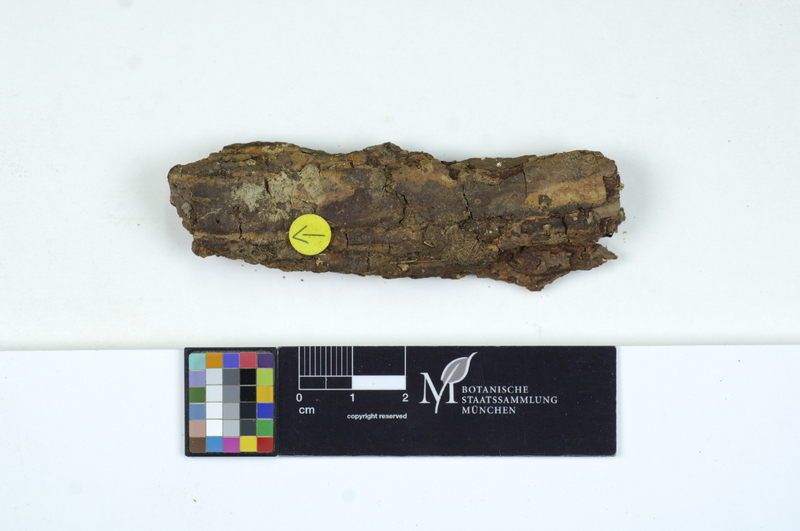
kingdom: Plantae
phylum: Tracheophyta
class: Pinopsida
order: Pinales
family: Pinaceae
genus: Pinus
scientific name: Pinus
